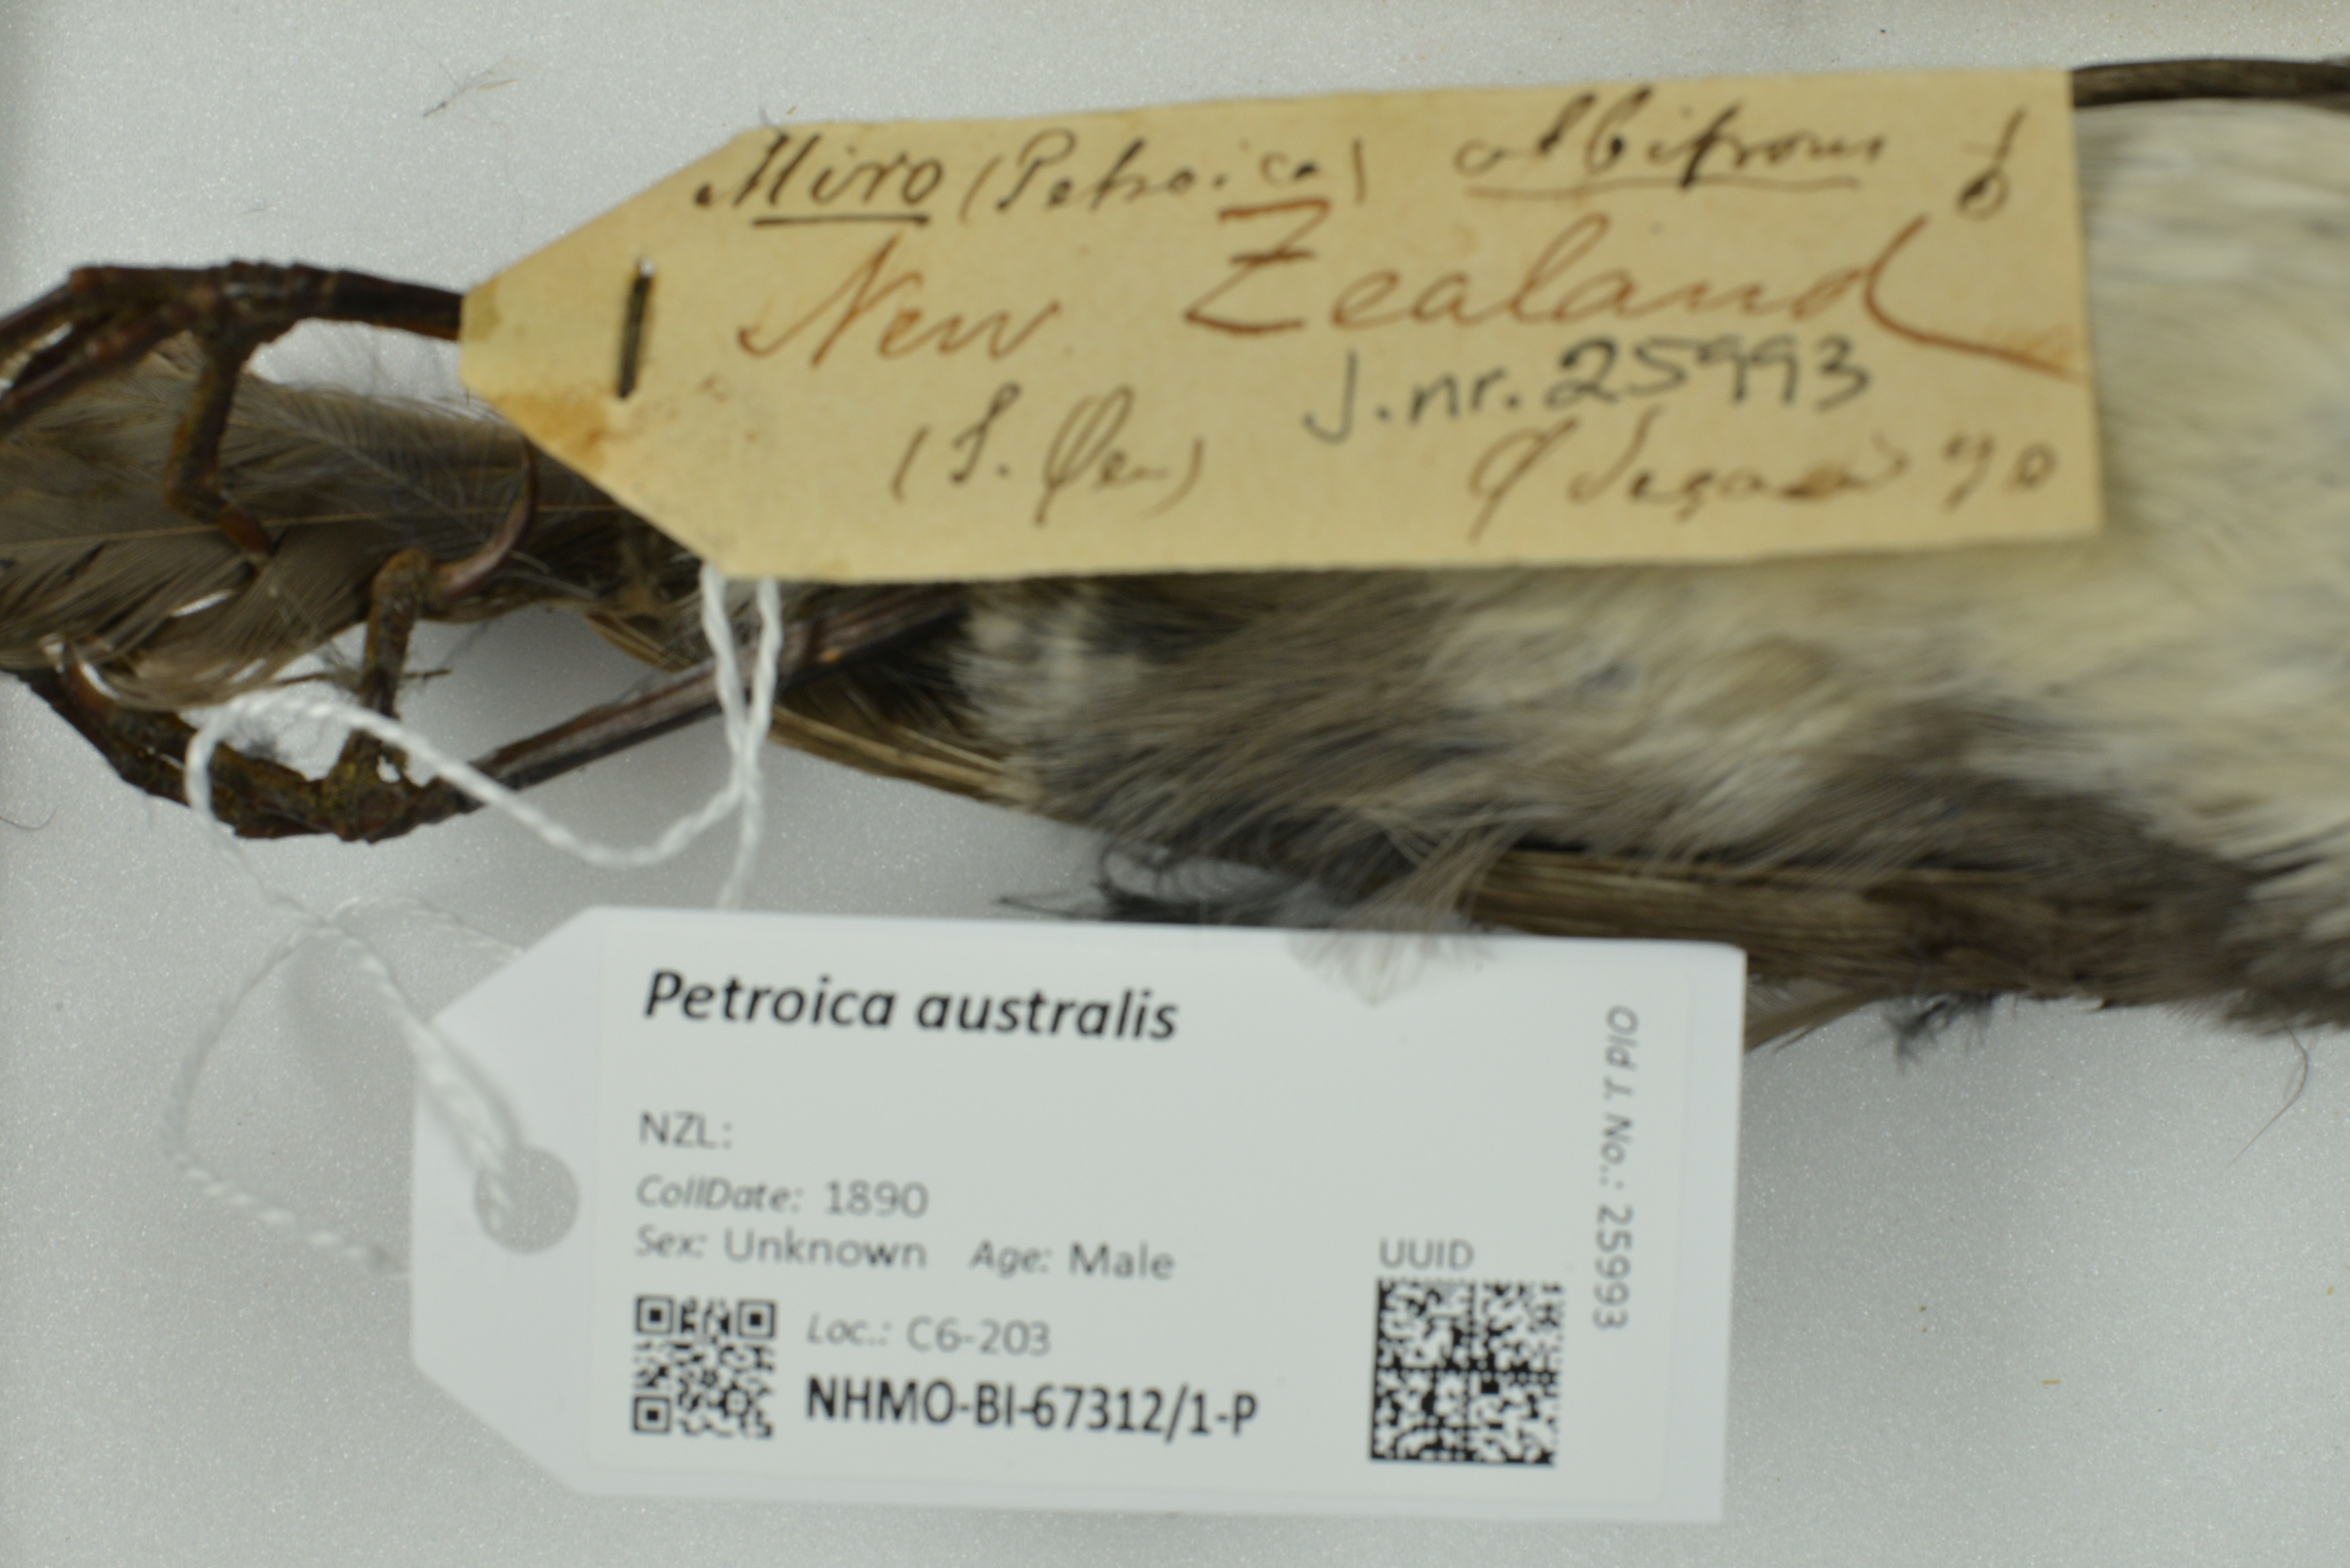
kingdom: Animalia
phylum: Chordata
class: Aves
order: Passeriformes
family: Petroicidae
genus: Petroica
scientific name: Petroica australis
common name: New zealand robin
